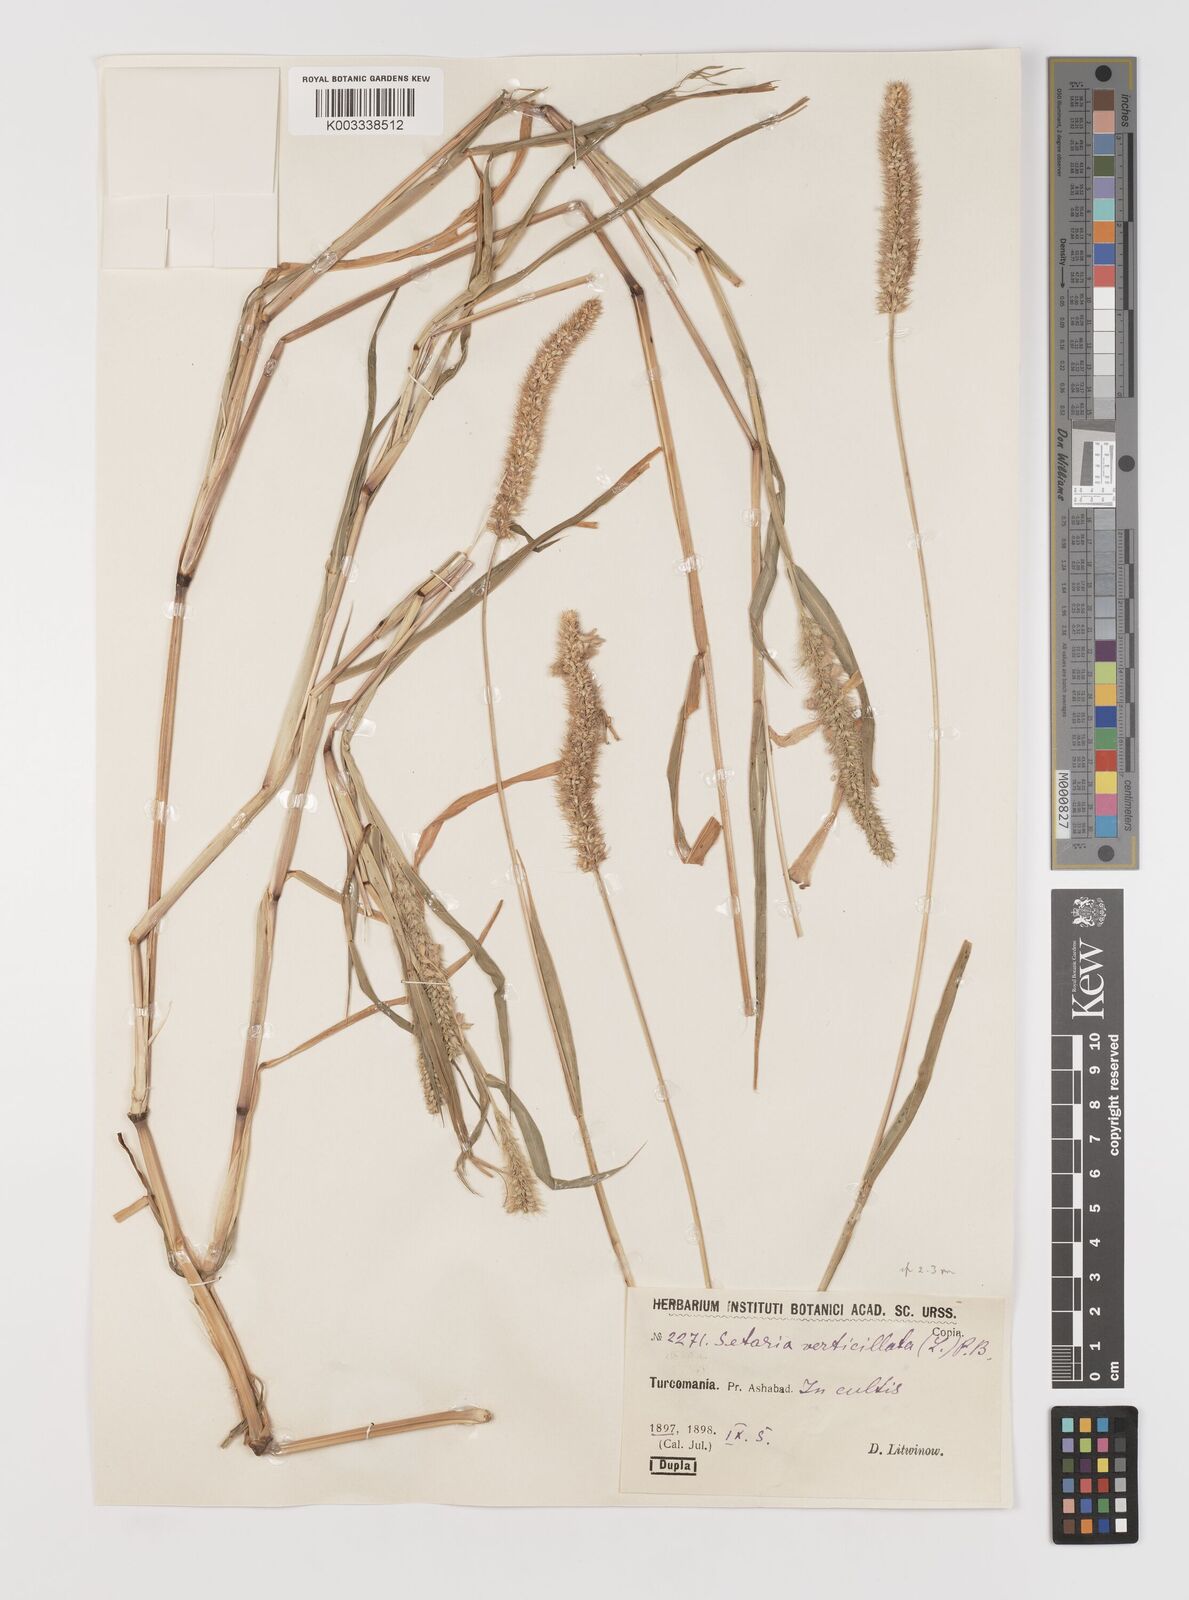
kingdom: Plantae
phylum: Tracheophyta
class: Liliopsida
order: Poales
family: Poaceae
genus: Setaria
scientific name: Setaria verticillata
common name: Hooked bristlegrass
